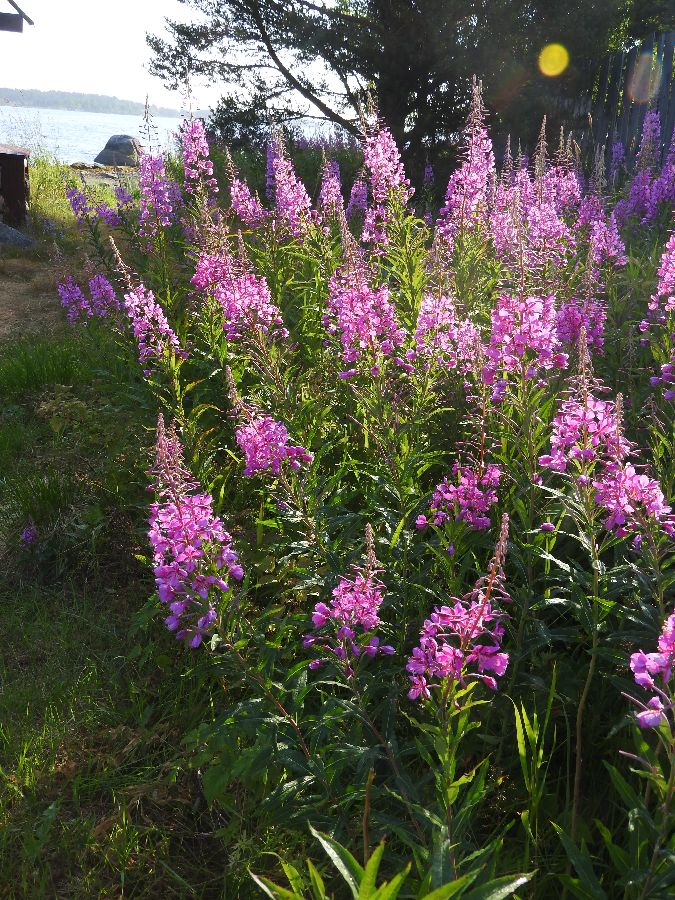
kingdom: Plantae
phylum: Tracheophyta
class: Magnoliopsida
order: Myrtales
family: Onagraceae
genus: Chamaenerion
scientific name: Chamaenerion angustifolium
